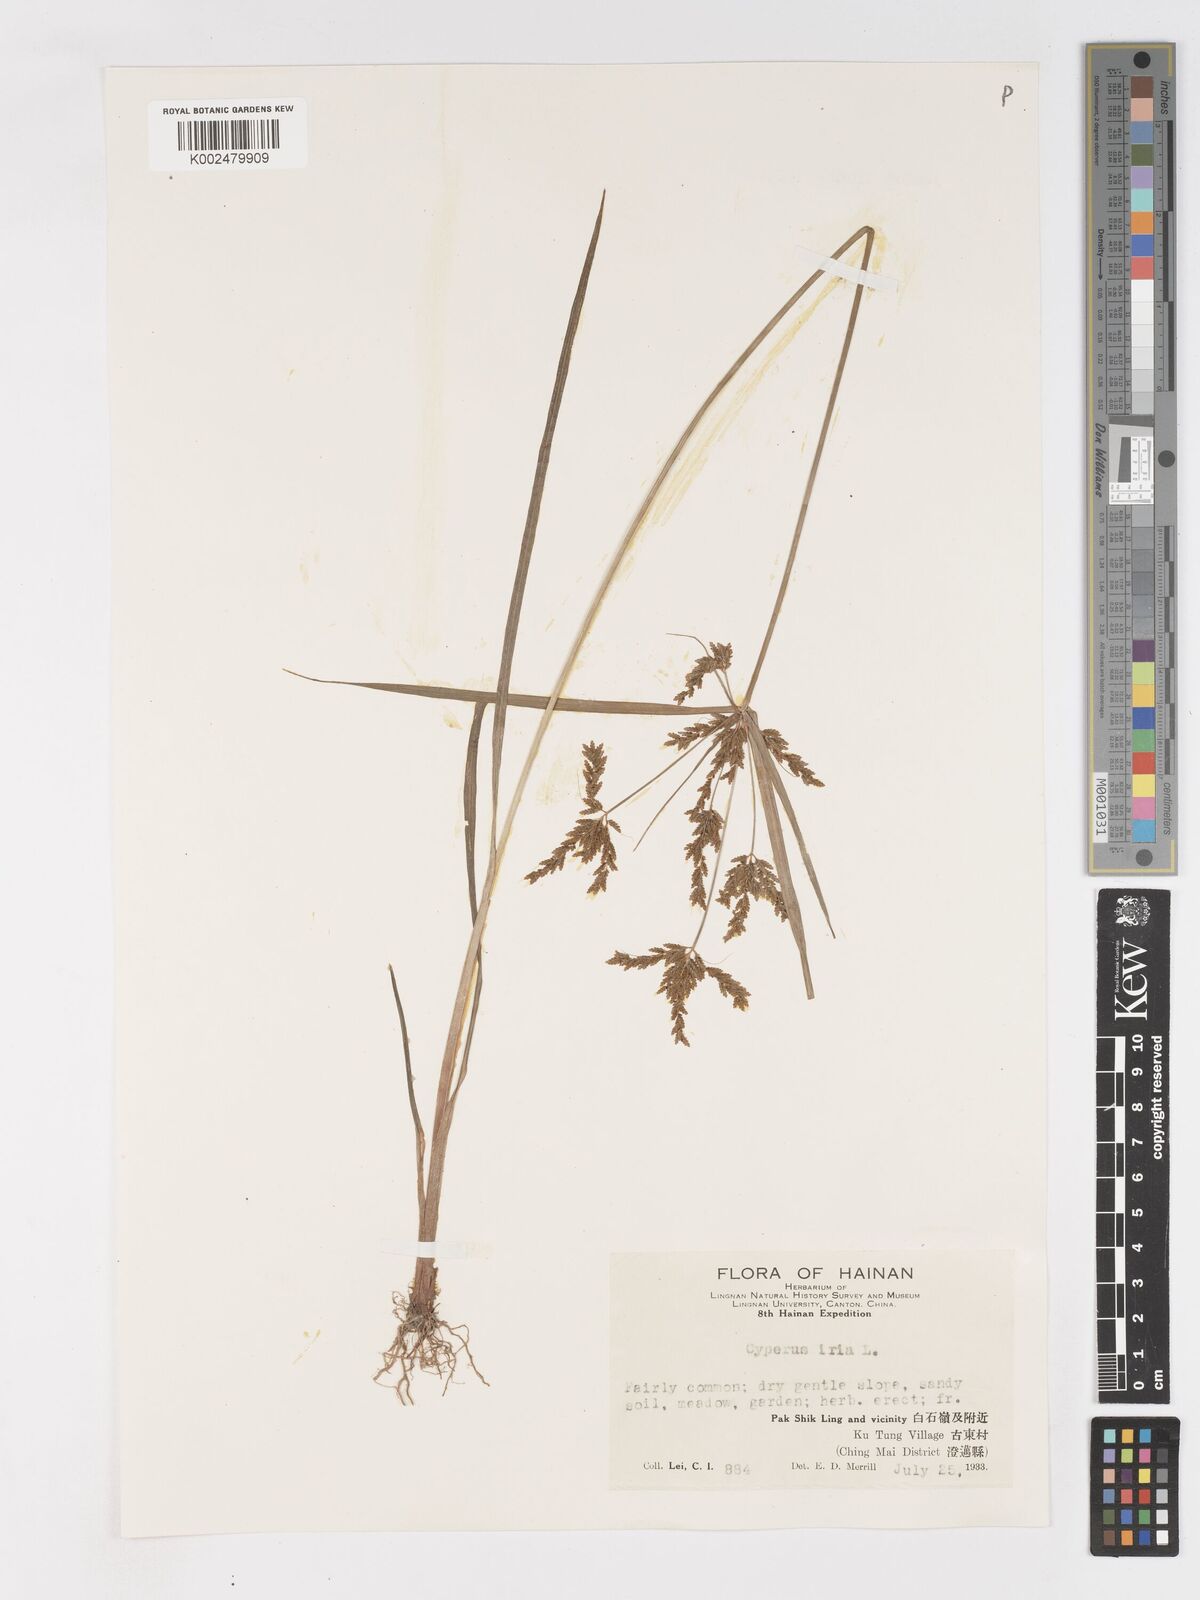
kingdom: Plantae
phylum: Tracheophyta
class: Liliopsida
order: Poales
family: Cyperaceae
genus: Cyperus
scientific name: Cyperus iria
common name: Ricefield flatsedge
